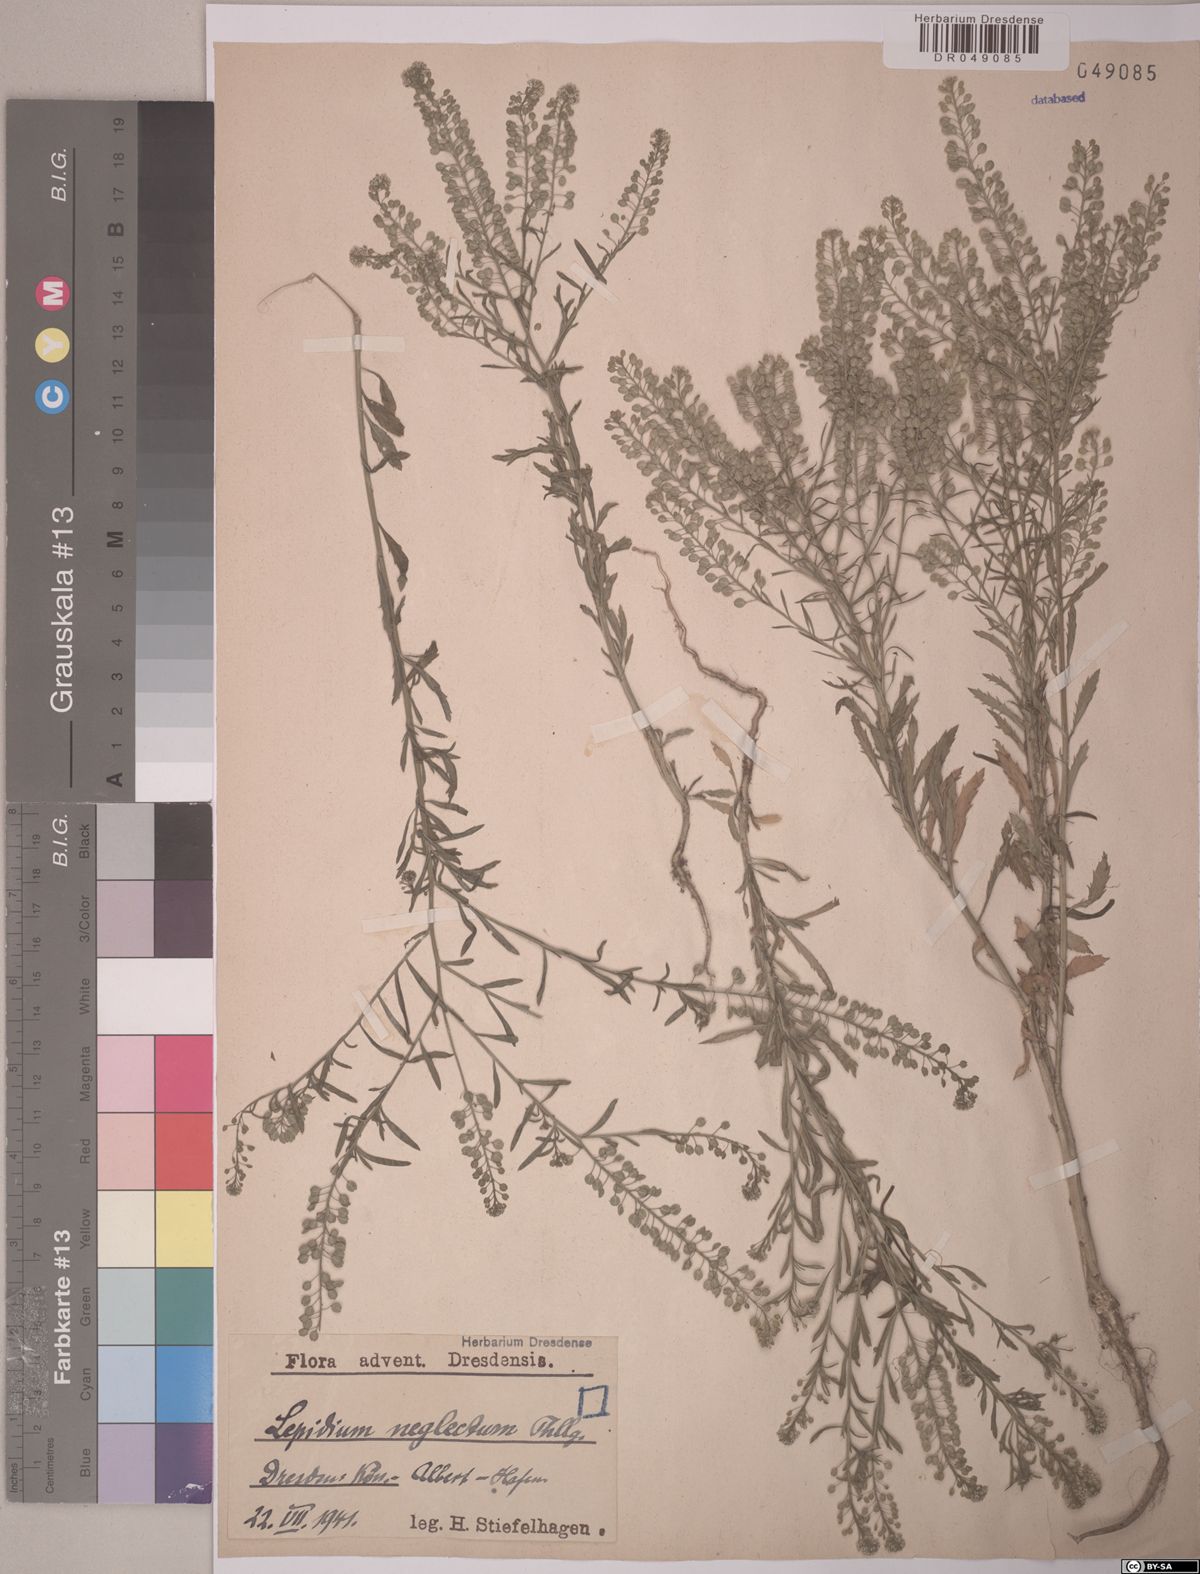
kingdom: Plantae
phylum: Tracheophyta
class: Magnoliopsida
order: Brassicales
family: Brassicaceae
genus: Lepidium
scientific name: Lepidium densiflorum
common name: Miner's pepperwort
